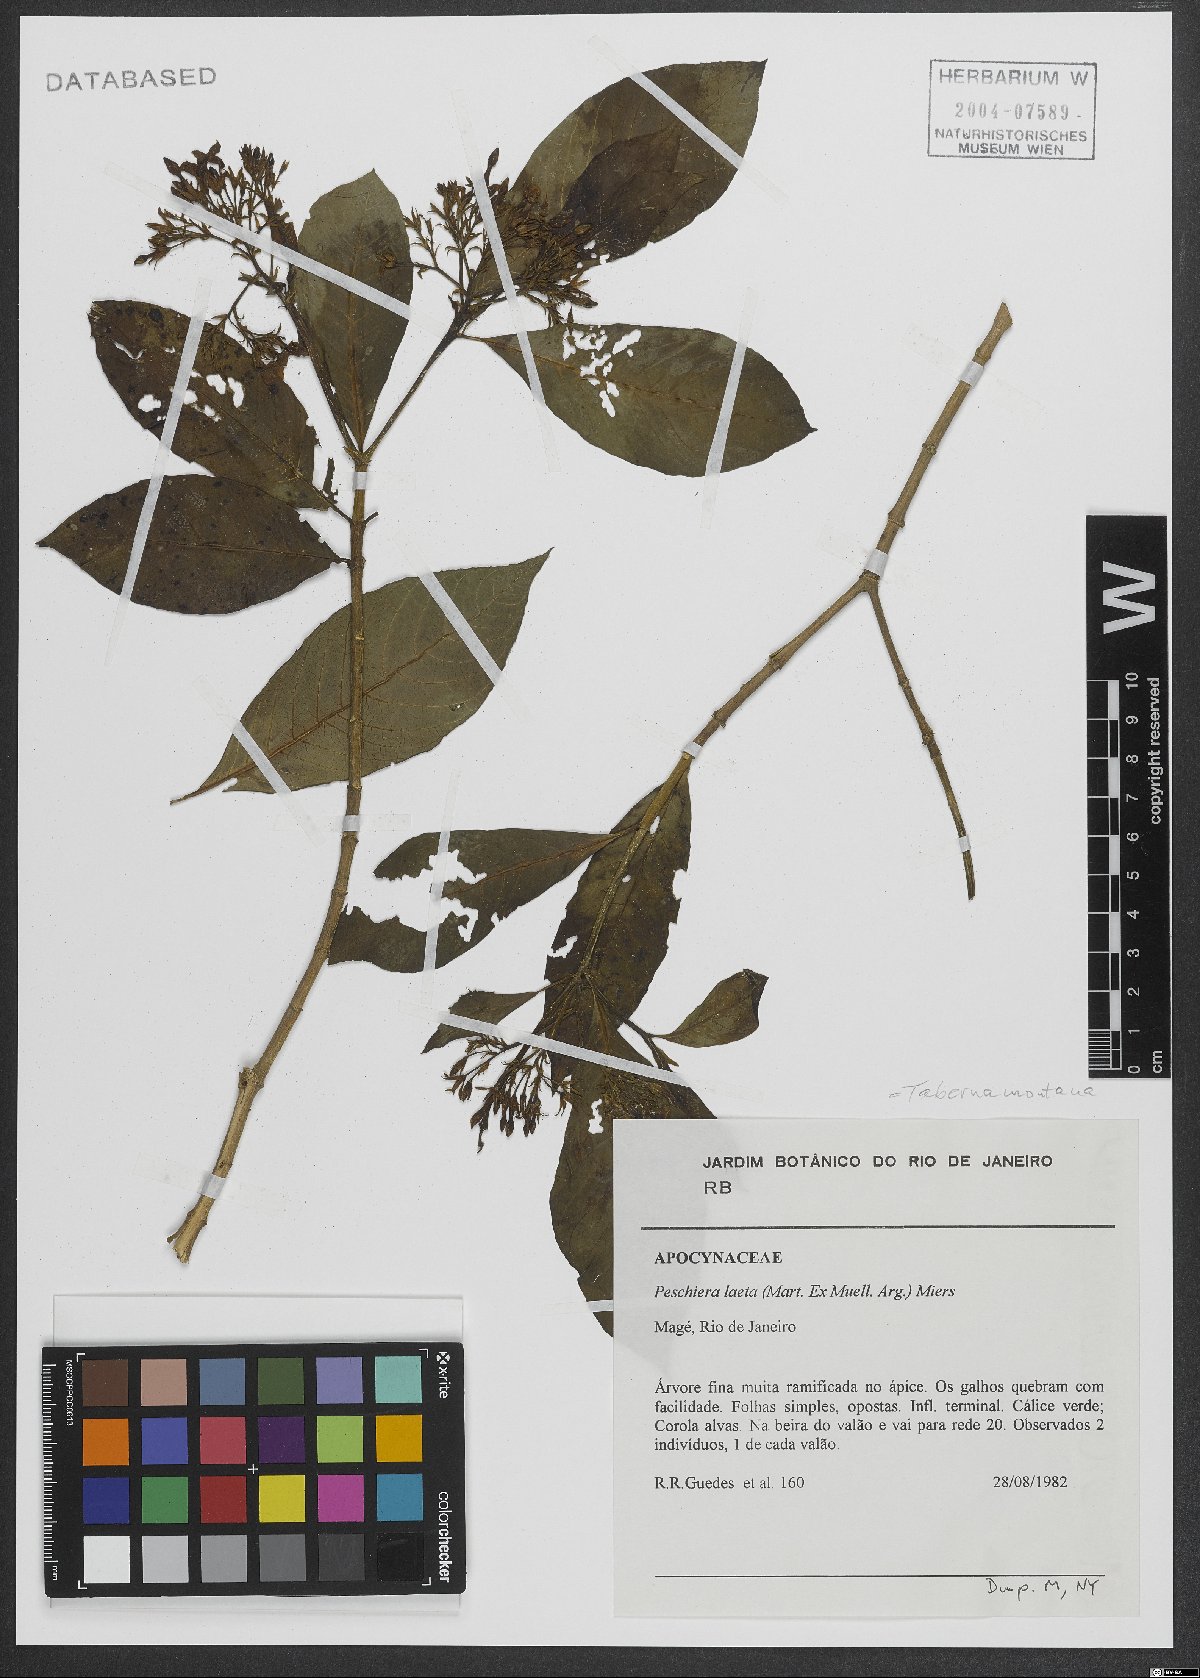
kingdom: Plantae
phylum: Tracheophyta
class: Magnoliopsida
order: Gentianales
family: Apocynaceae
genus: Tabernaemontana
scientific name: Tabernaemontana laeta
